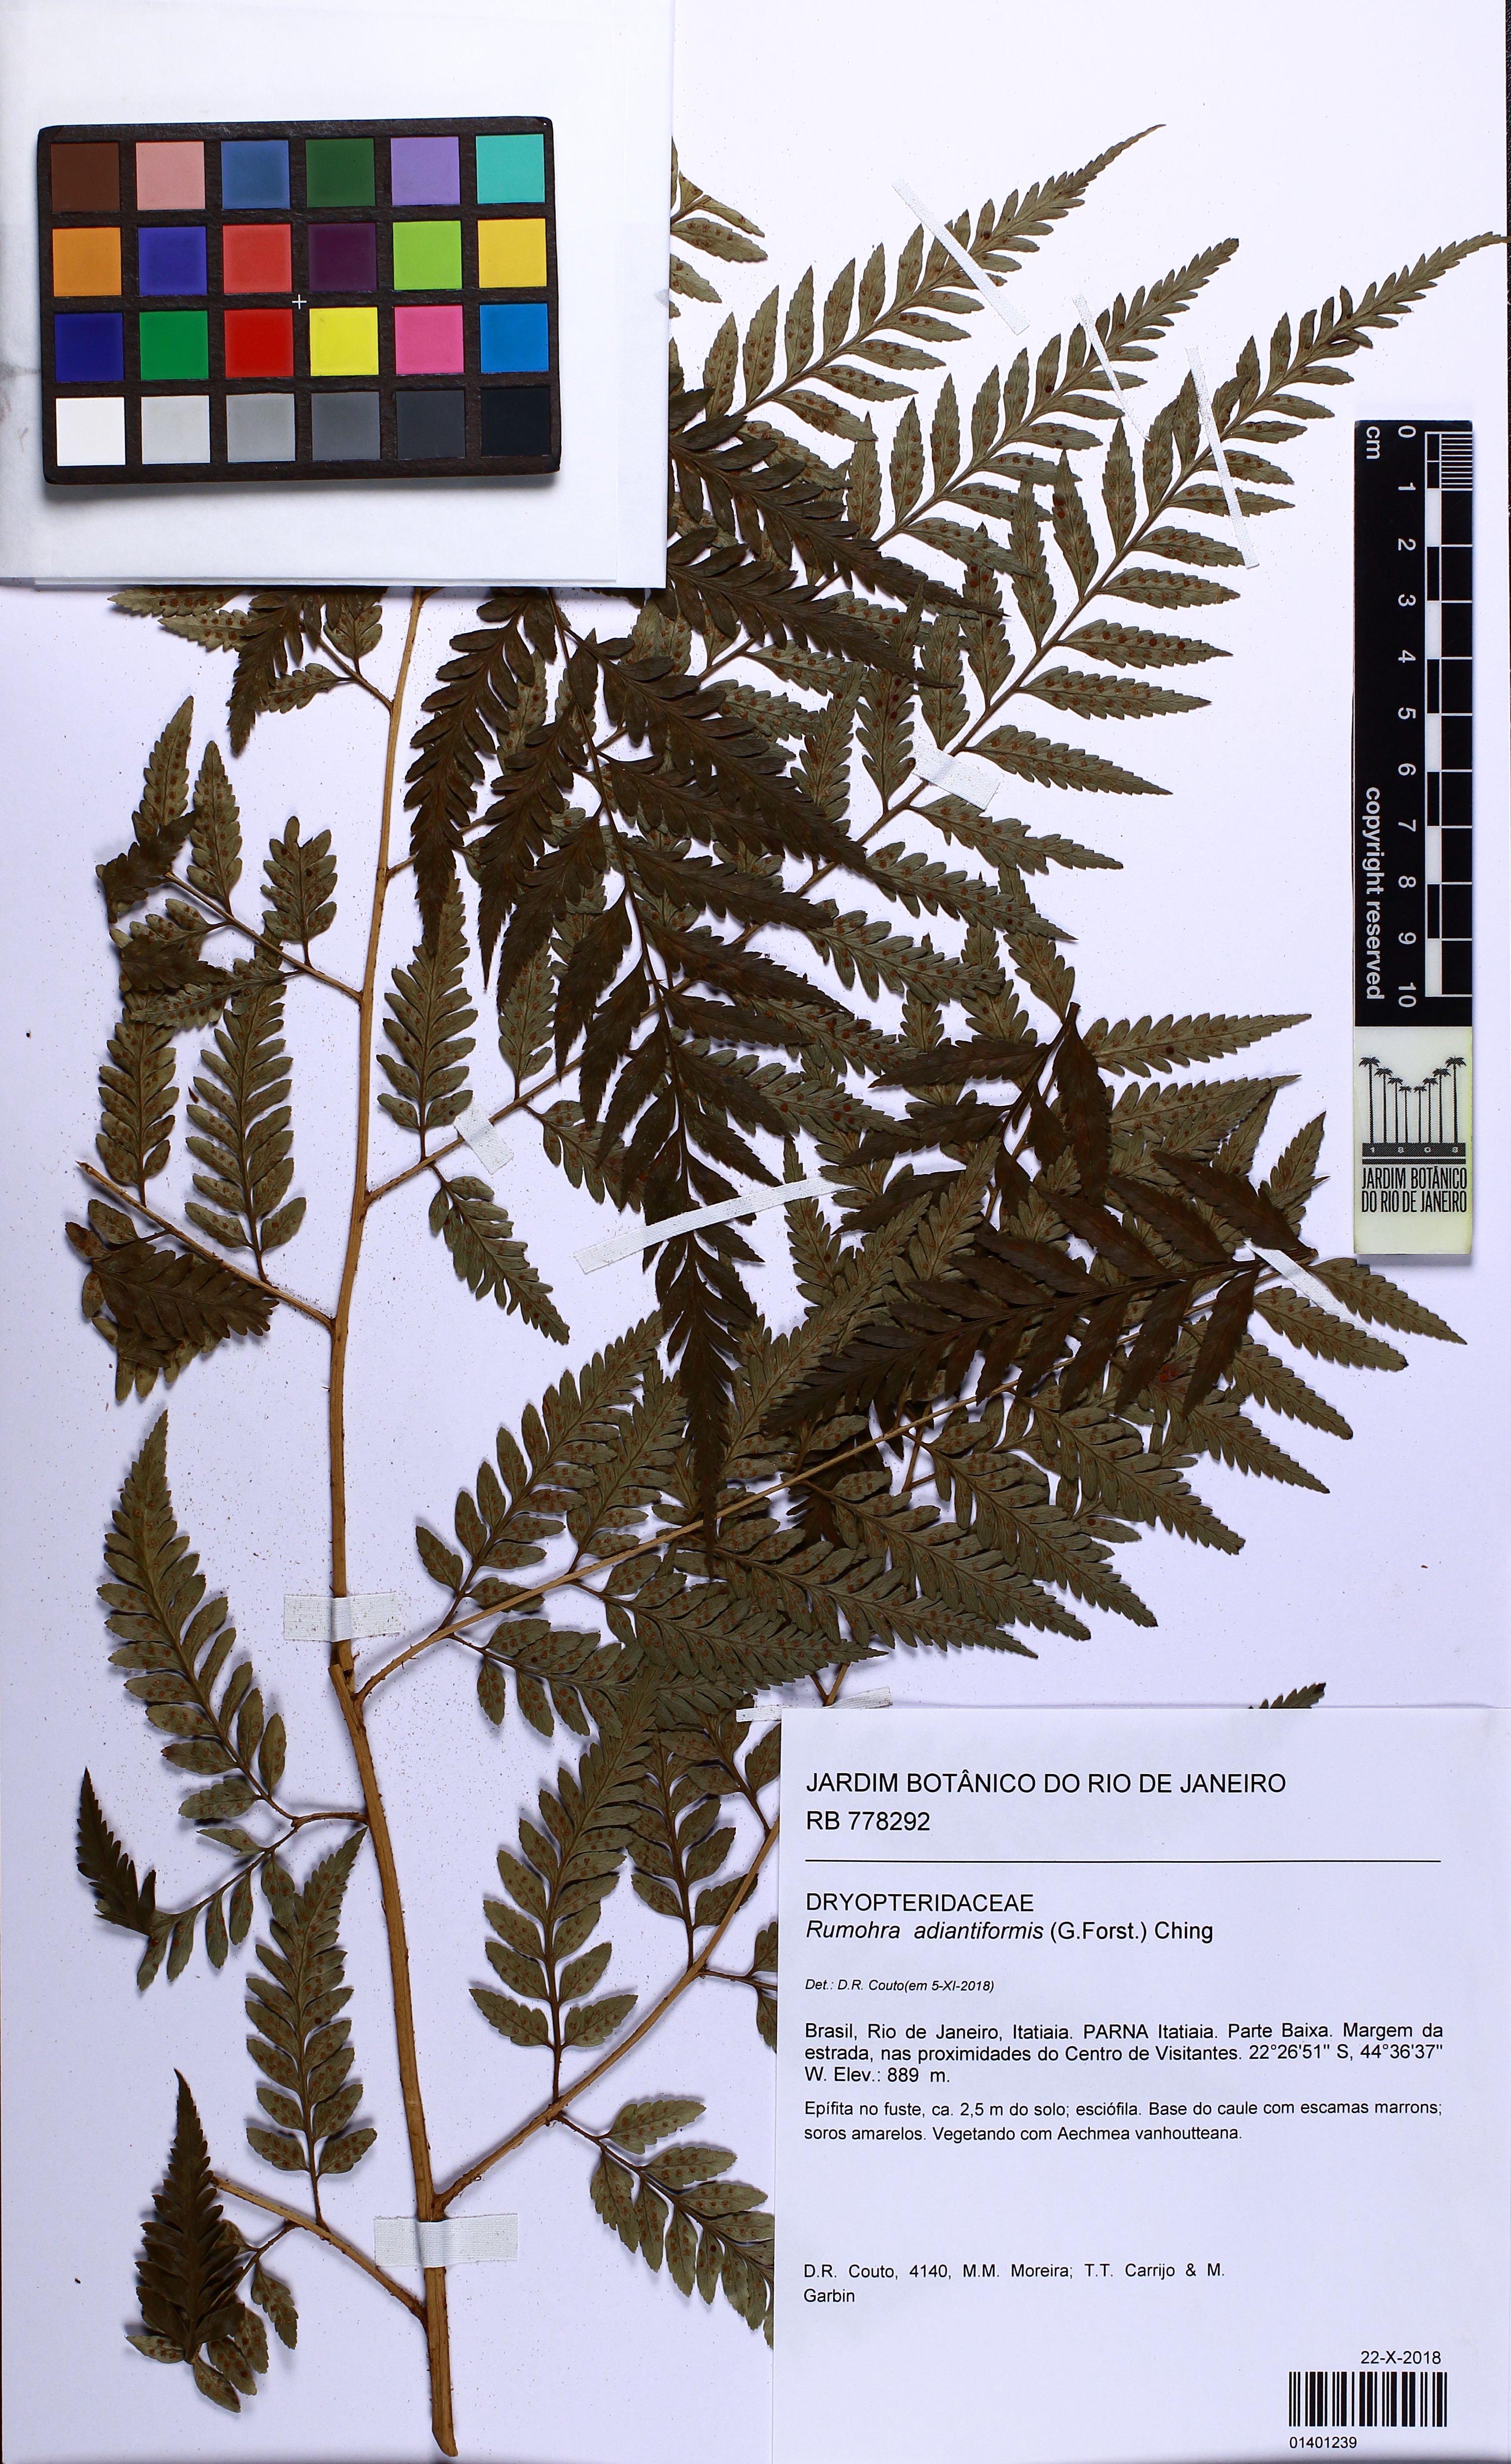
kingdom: Plantae
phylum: Tracheophyta
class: Polypodiopsida
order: Polypodiales
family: Dryopteridaceae
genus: Rumohra
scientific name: Rumohra adiantiformis
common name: Leather fern
